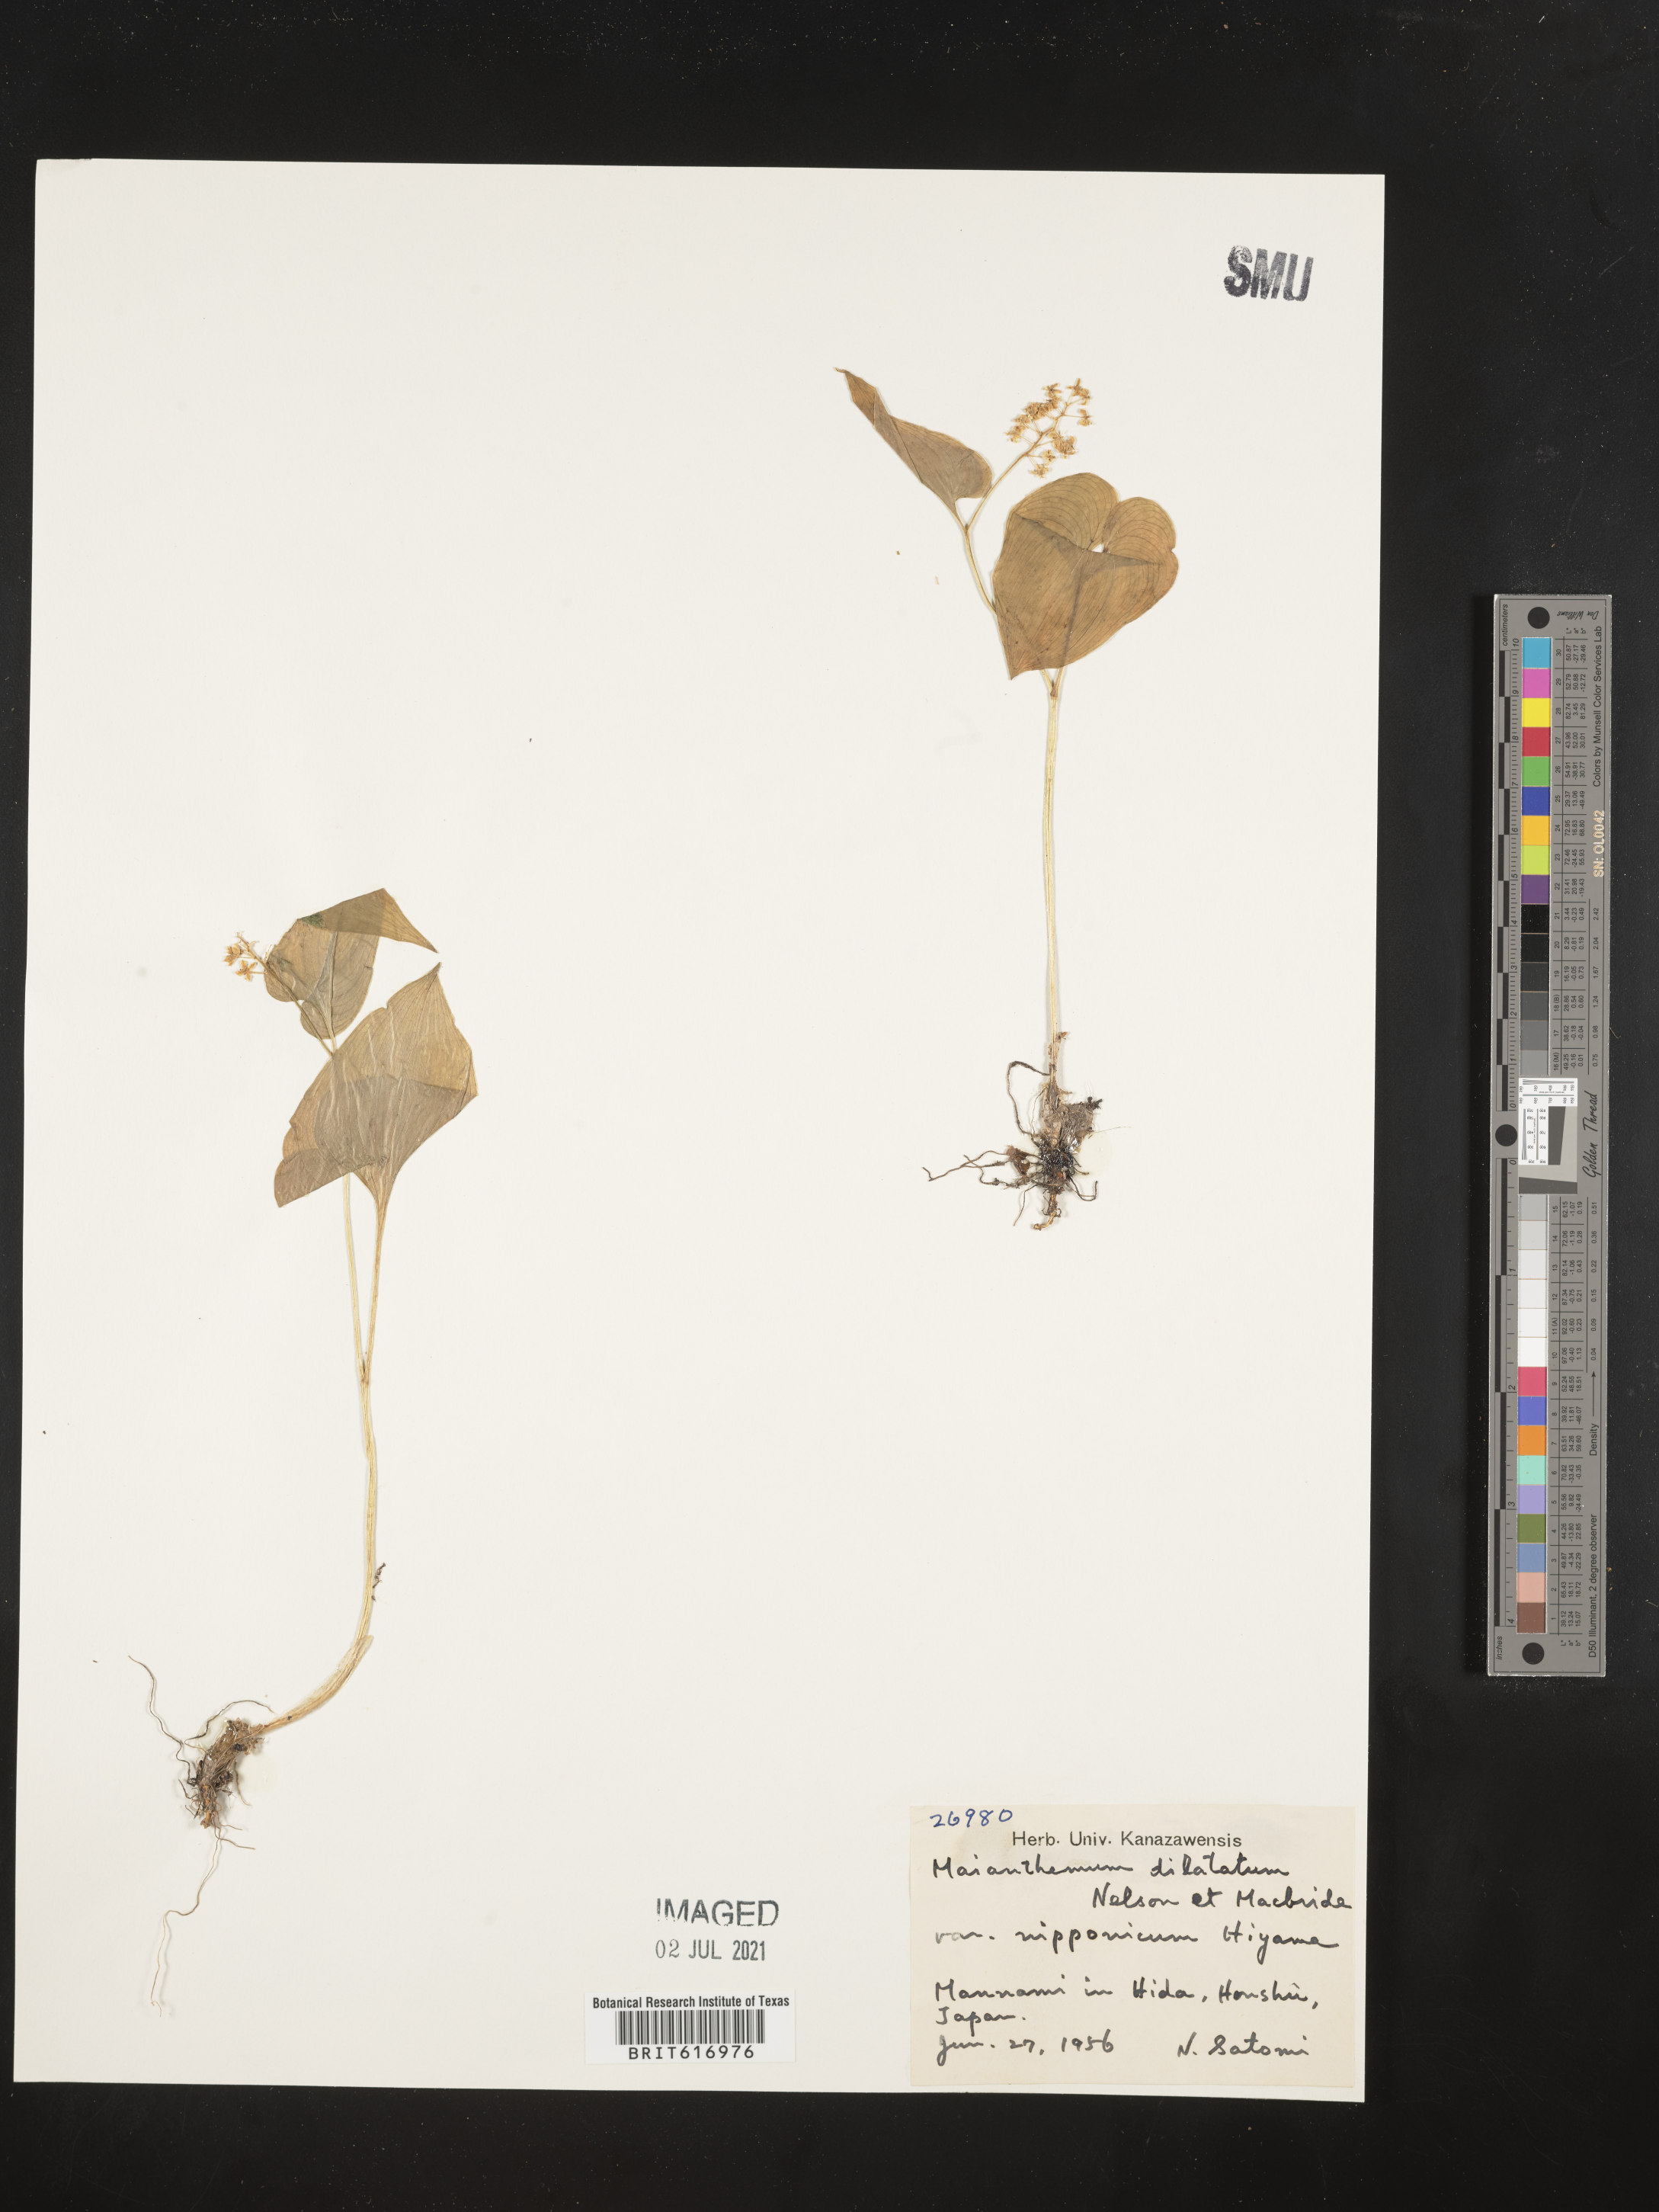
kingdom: Plantae
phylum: Tracheophyta
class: Liliopsida
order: Asparagales
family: Asparagaceae
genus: Maianthemum
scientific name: Maianthemum dilatatum
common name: False lily-of-the-valley
